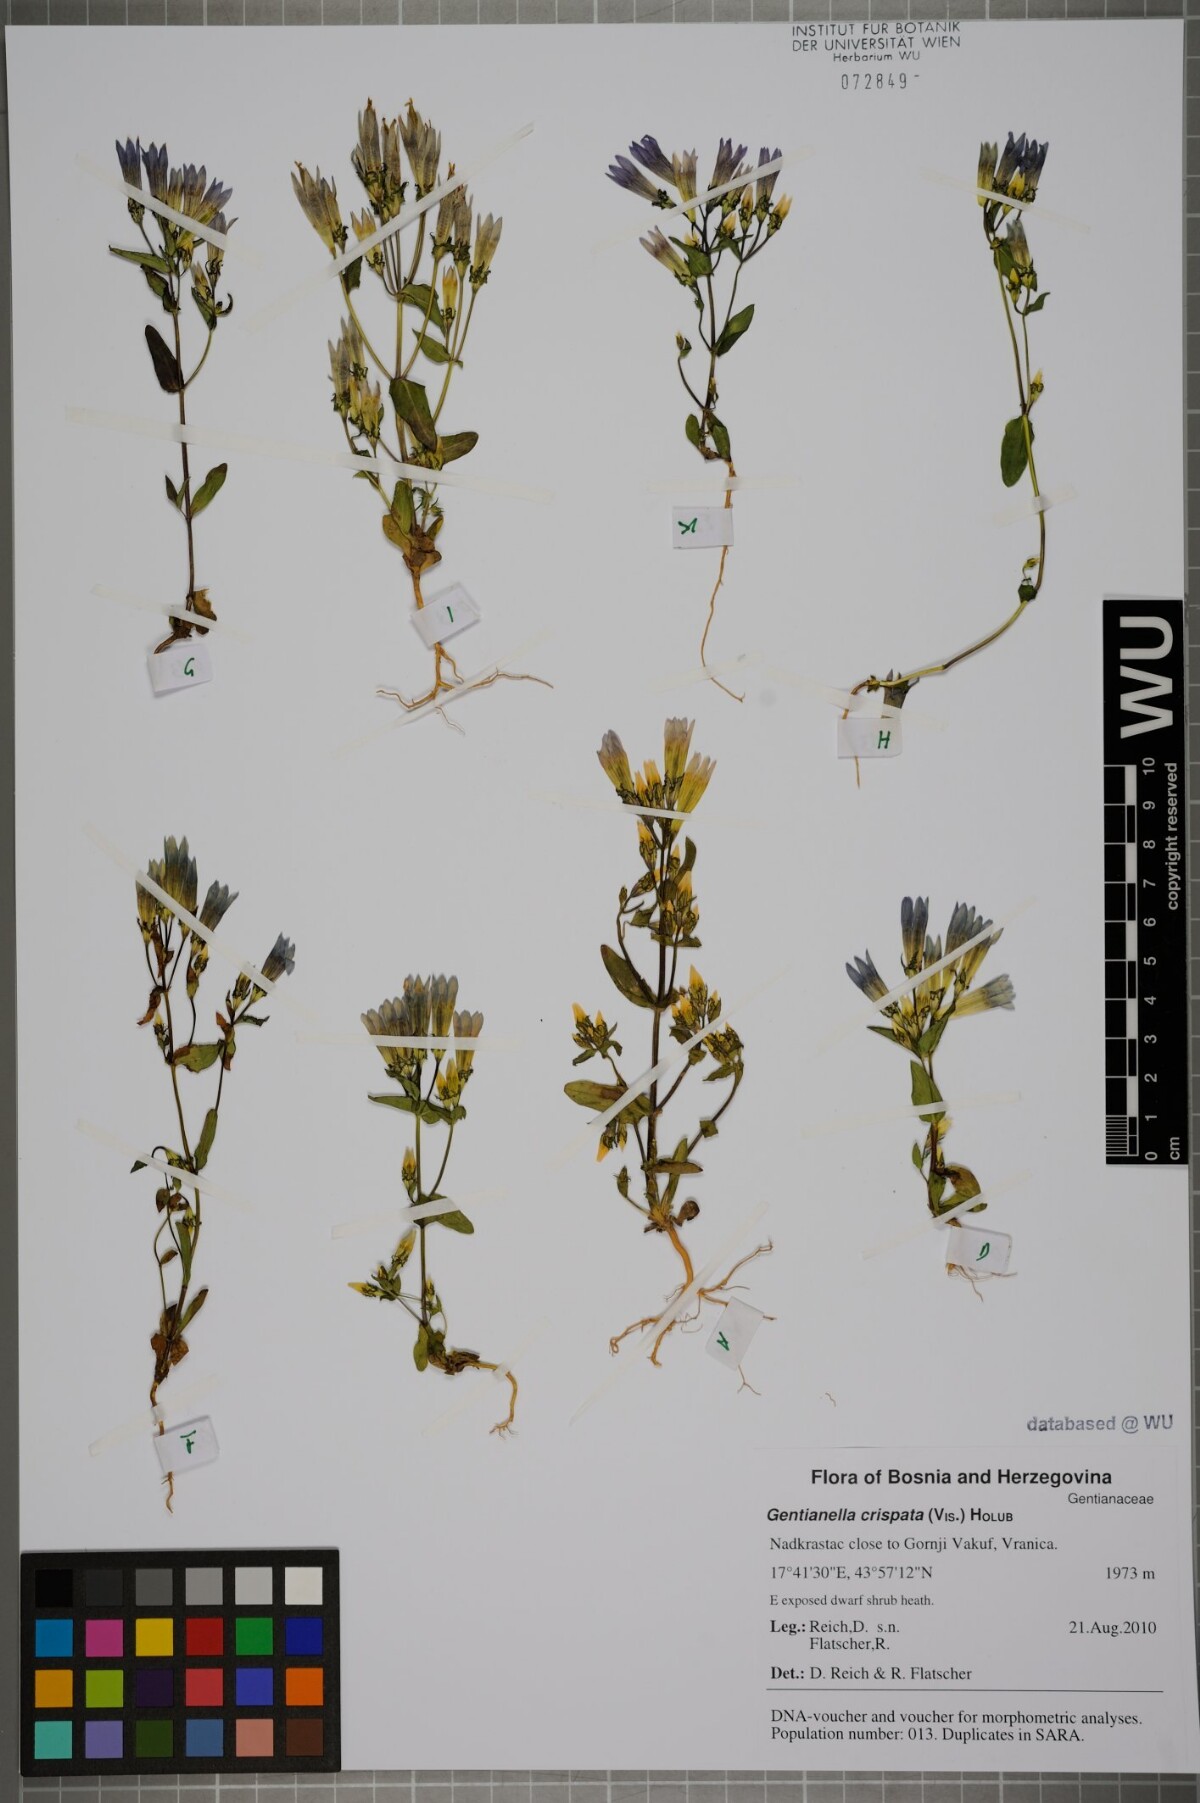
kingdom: Plantae
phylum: Tracheophyta
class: Magnoliopsida
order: Gentianales
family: Gentianaceae
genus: Gentianella
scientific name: Gentianella crispata
